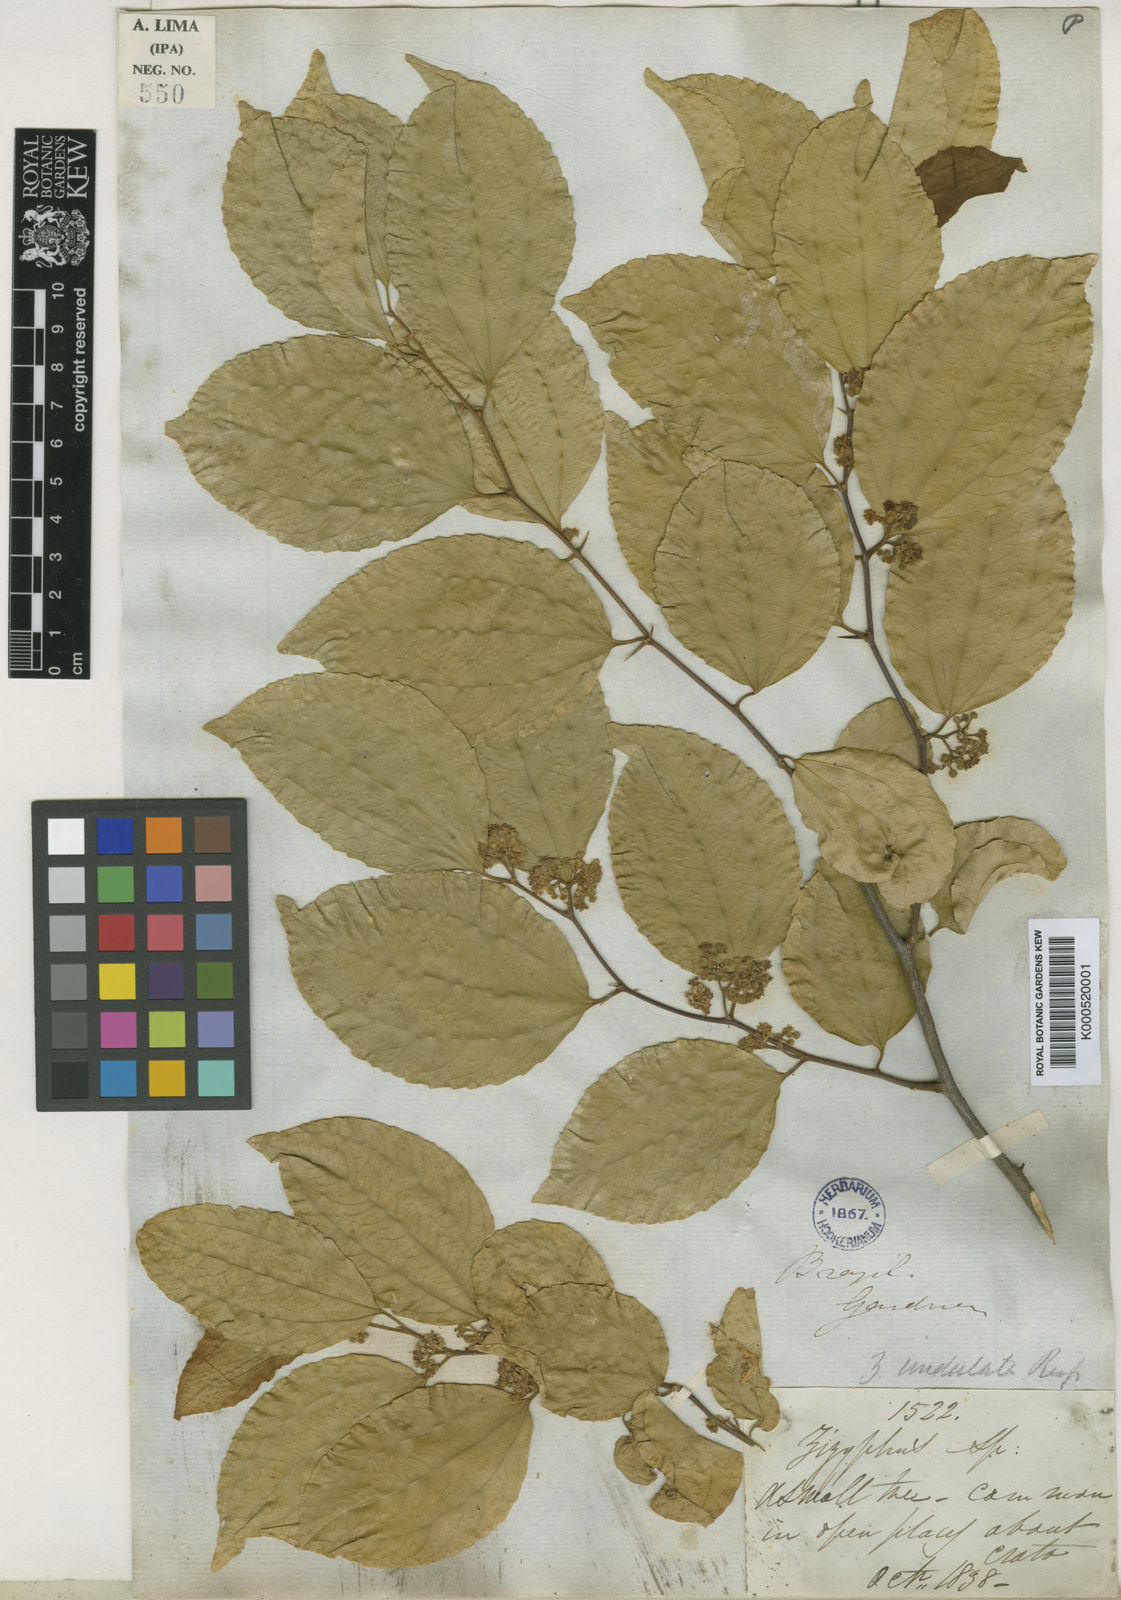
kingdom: Plantae
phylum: Tracheophyta
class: Magnoliopsida
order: Rosales
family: Rhamnaceae
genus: Sarcomphalus
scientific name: Sarcomphalus joazeiro
